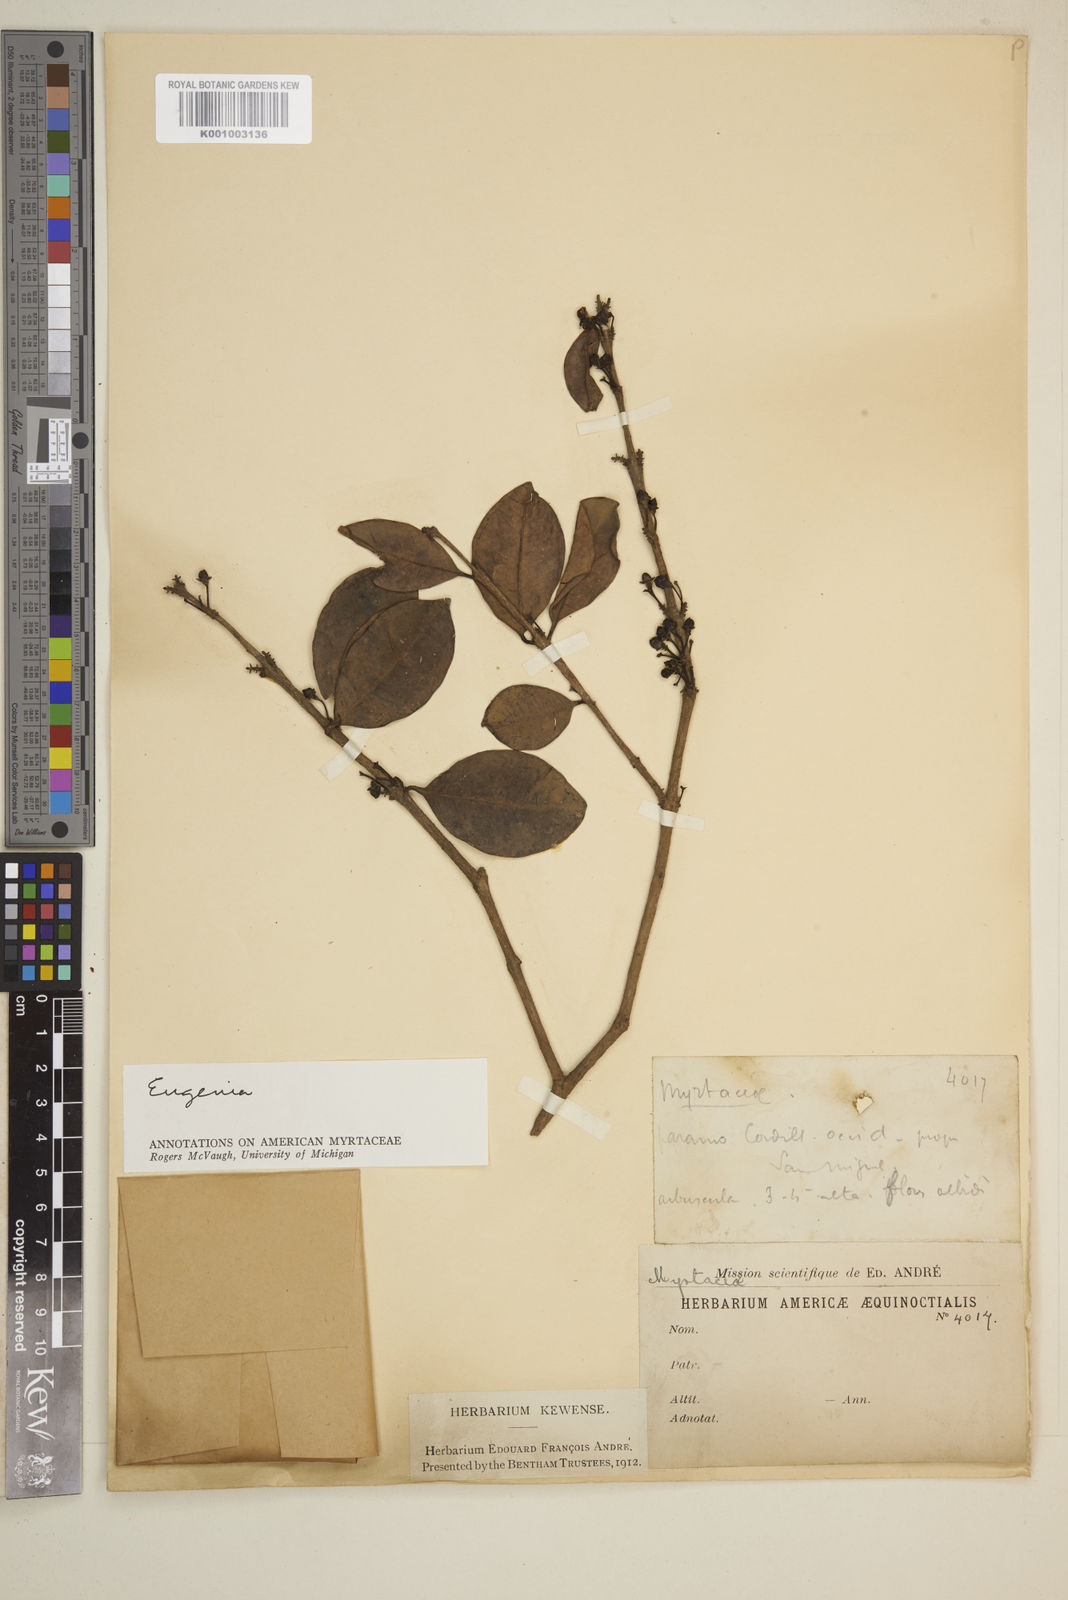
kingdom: Plantae
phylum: Tracheophyta
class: Magnoliopsida
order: Myrtales
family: Myrtaceae
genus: Eugenia
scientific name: Eugenia
